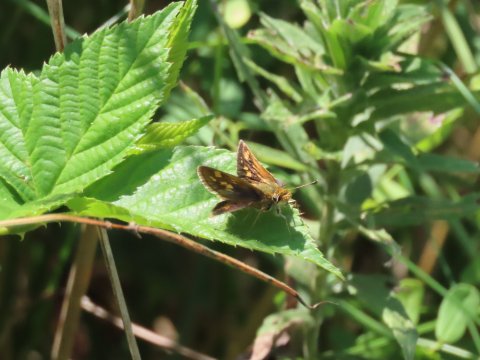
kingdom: Animalia
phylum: Arthropoda
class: Insecta
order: Lepidoptera
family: Hesperiidae
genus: Polites
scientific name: Polites coras
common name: Peck's Skipper
